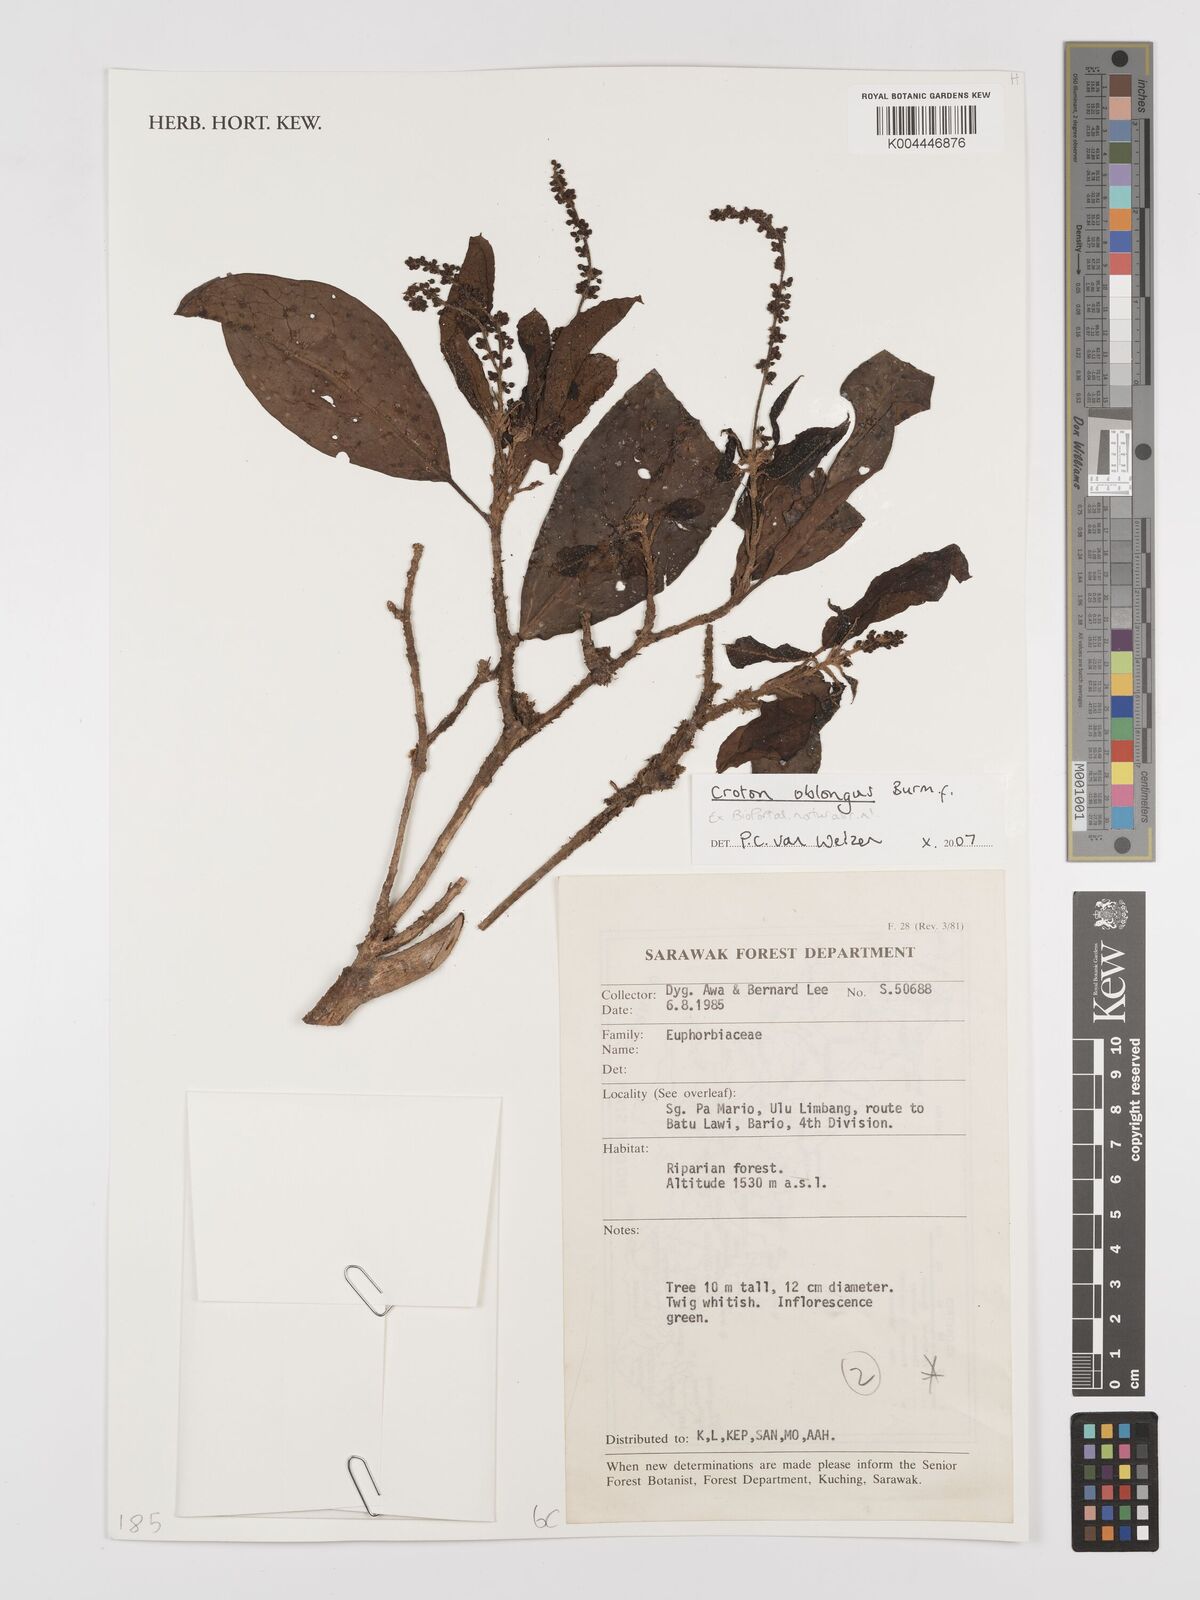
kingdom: Plantae
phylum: Tracheophyta
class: Magnoliopsida
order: Malpighiales
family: Euphorbiaceae
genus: Croton
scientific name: Croton oblongus
